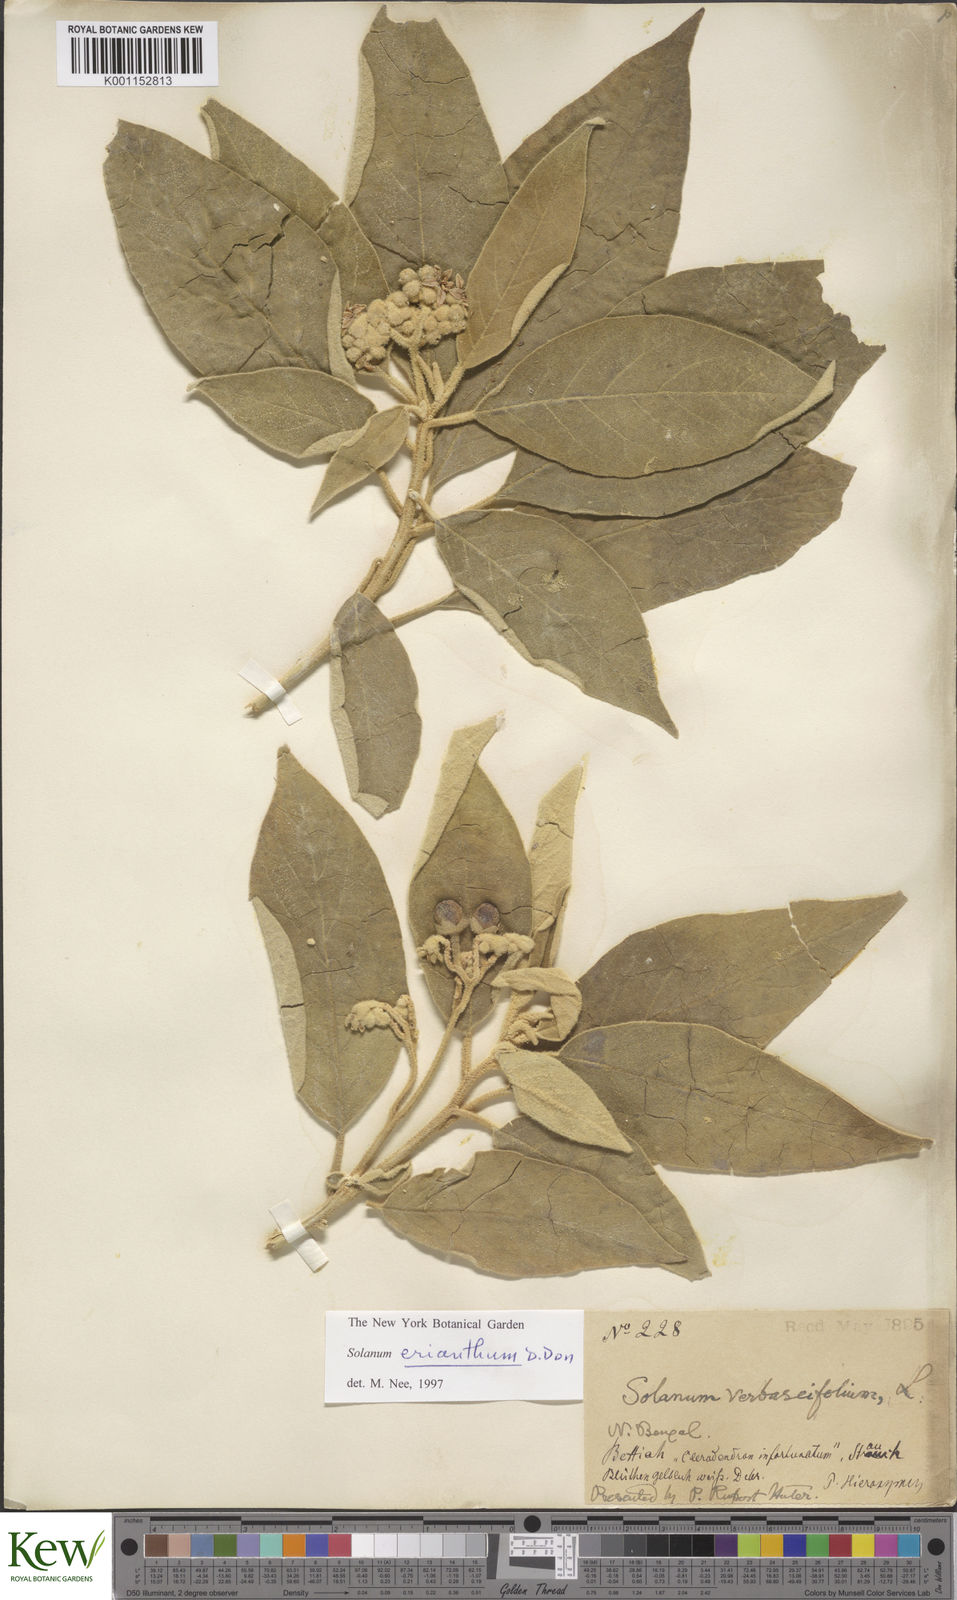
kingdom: Plantae
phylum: Tracheophyta
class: Magnoliopsida
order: Solanales
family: Solanaceae
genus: Solanum
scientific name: Solanum erianthum
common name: Tobacco-tree
